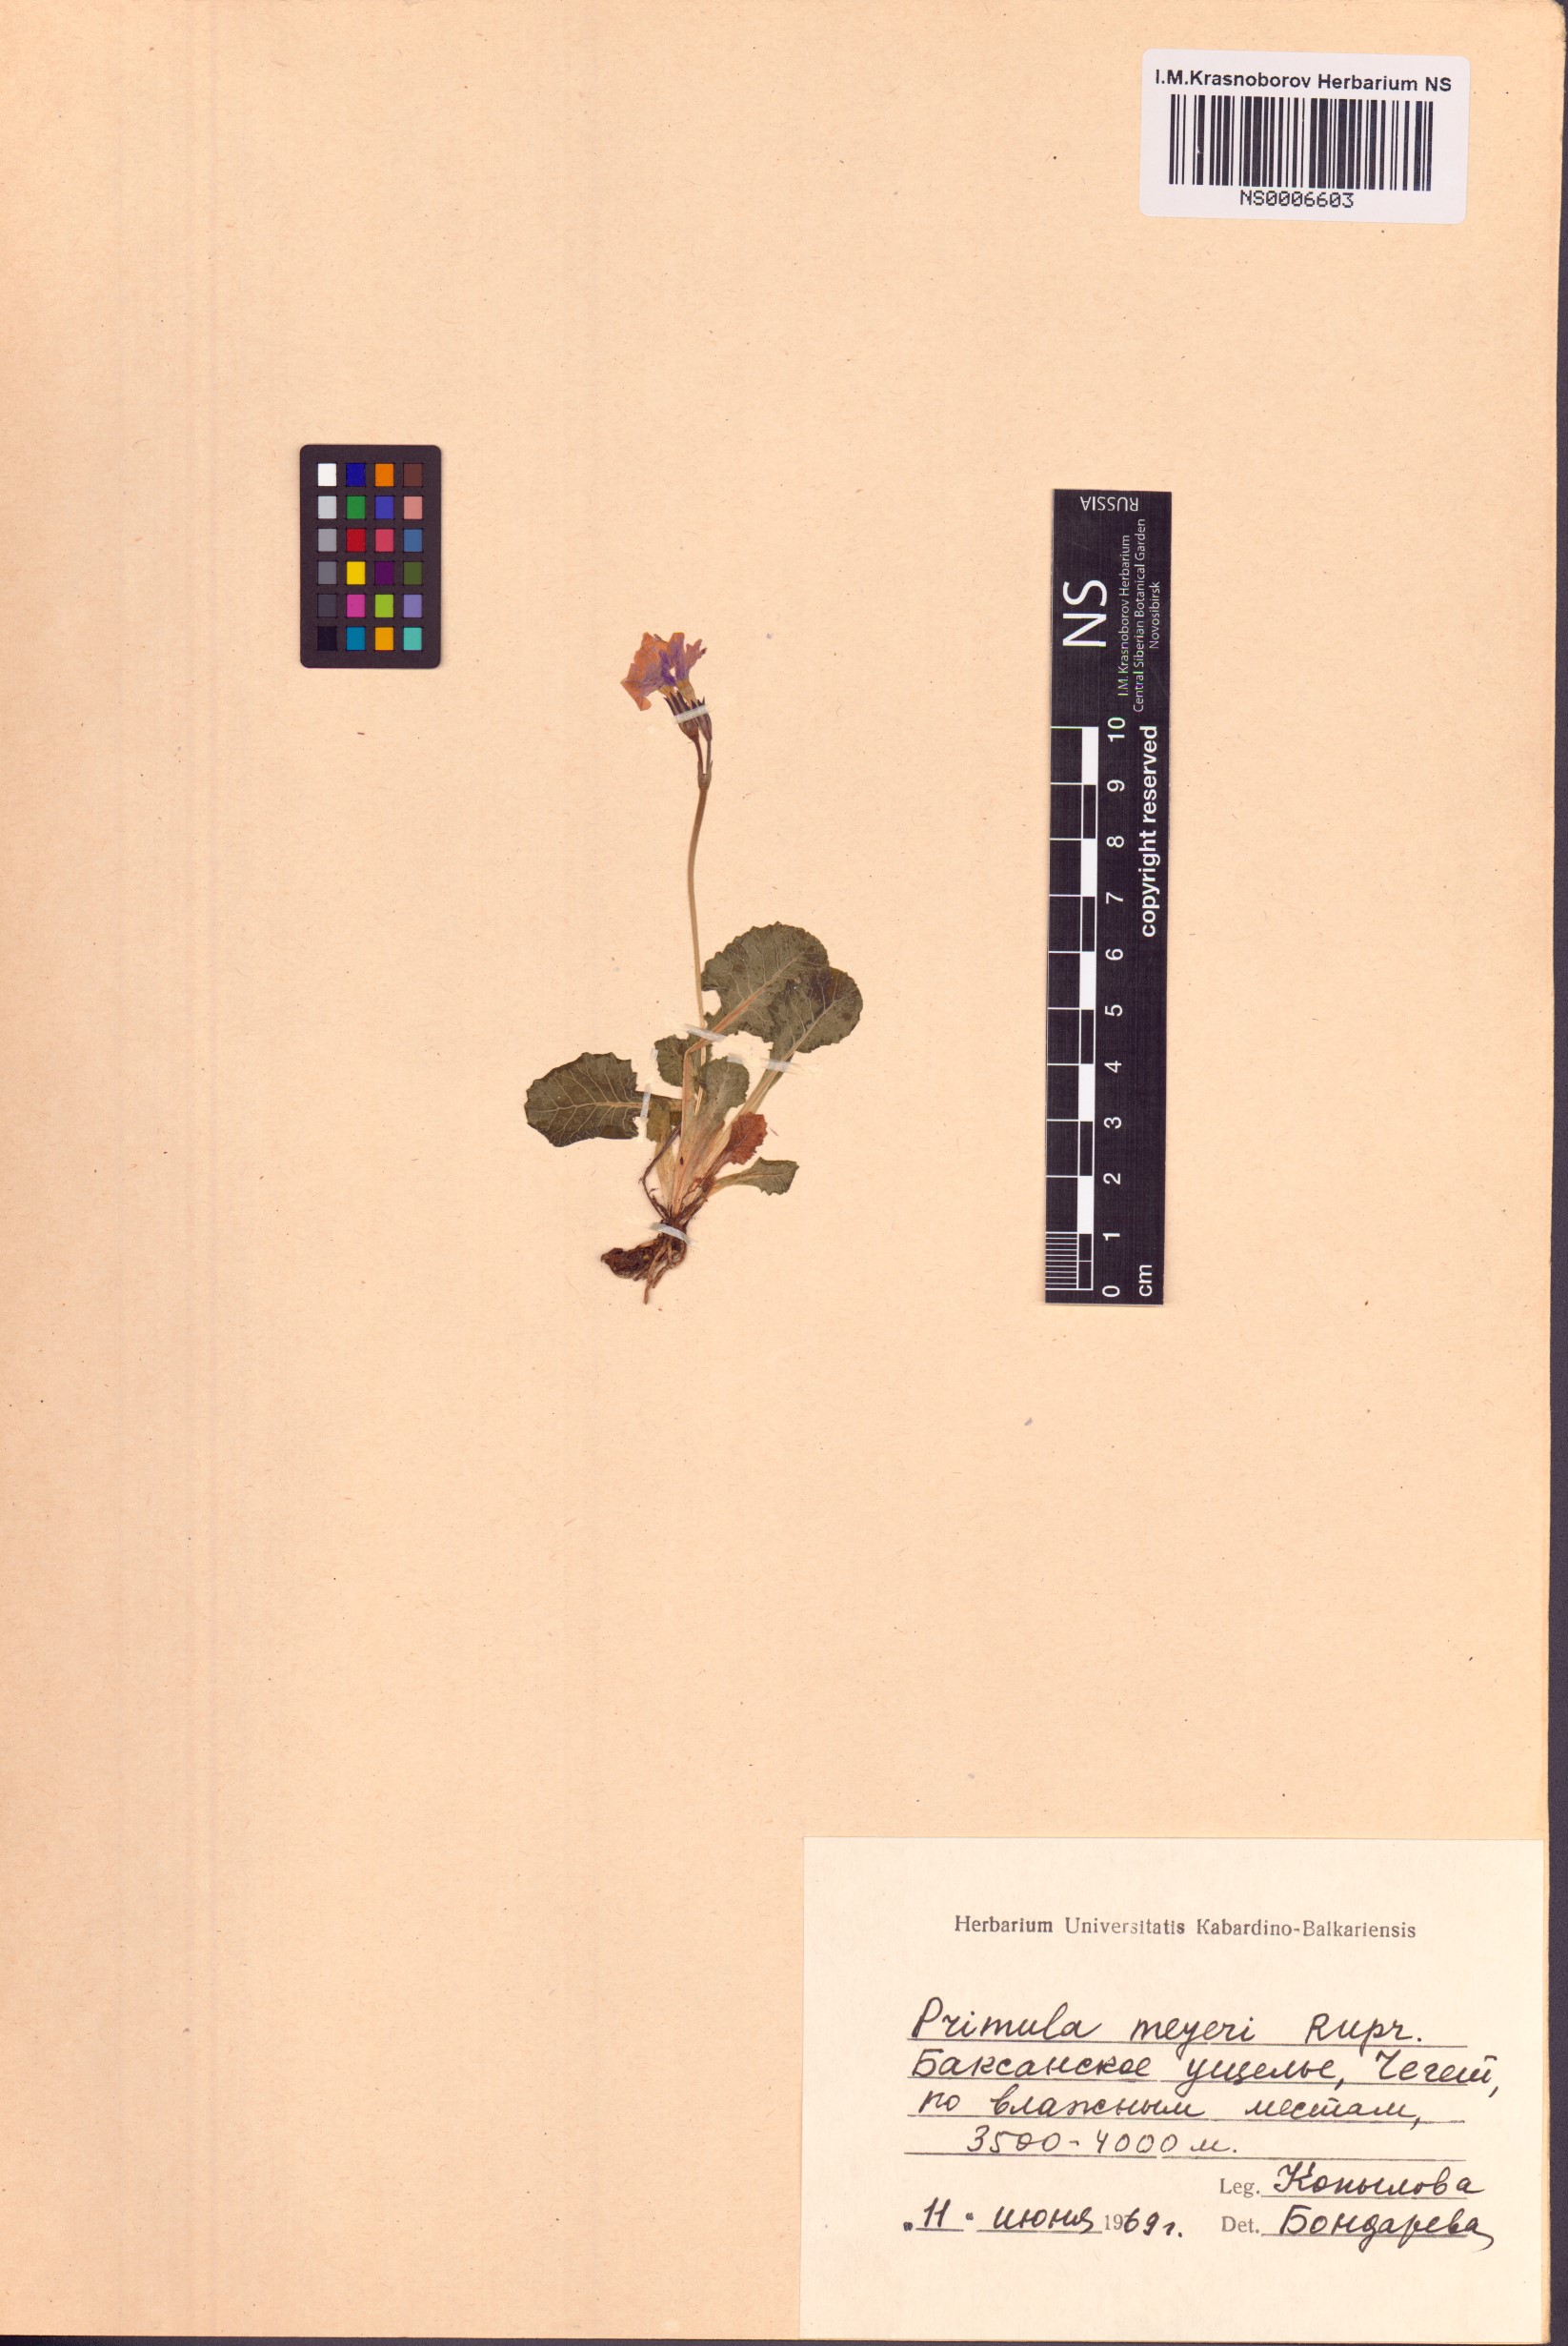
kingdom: Plantae
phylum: Tracheophyta
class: Magnoliopsida
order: Ericales
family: Primulaceae
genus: Primula
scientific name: Primula meyeri
